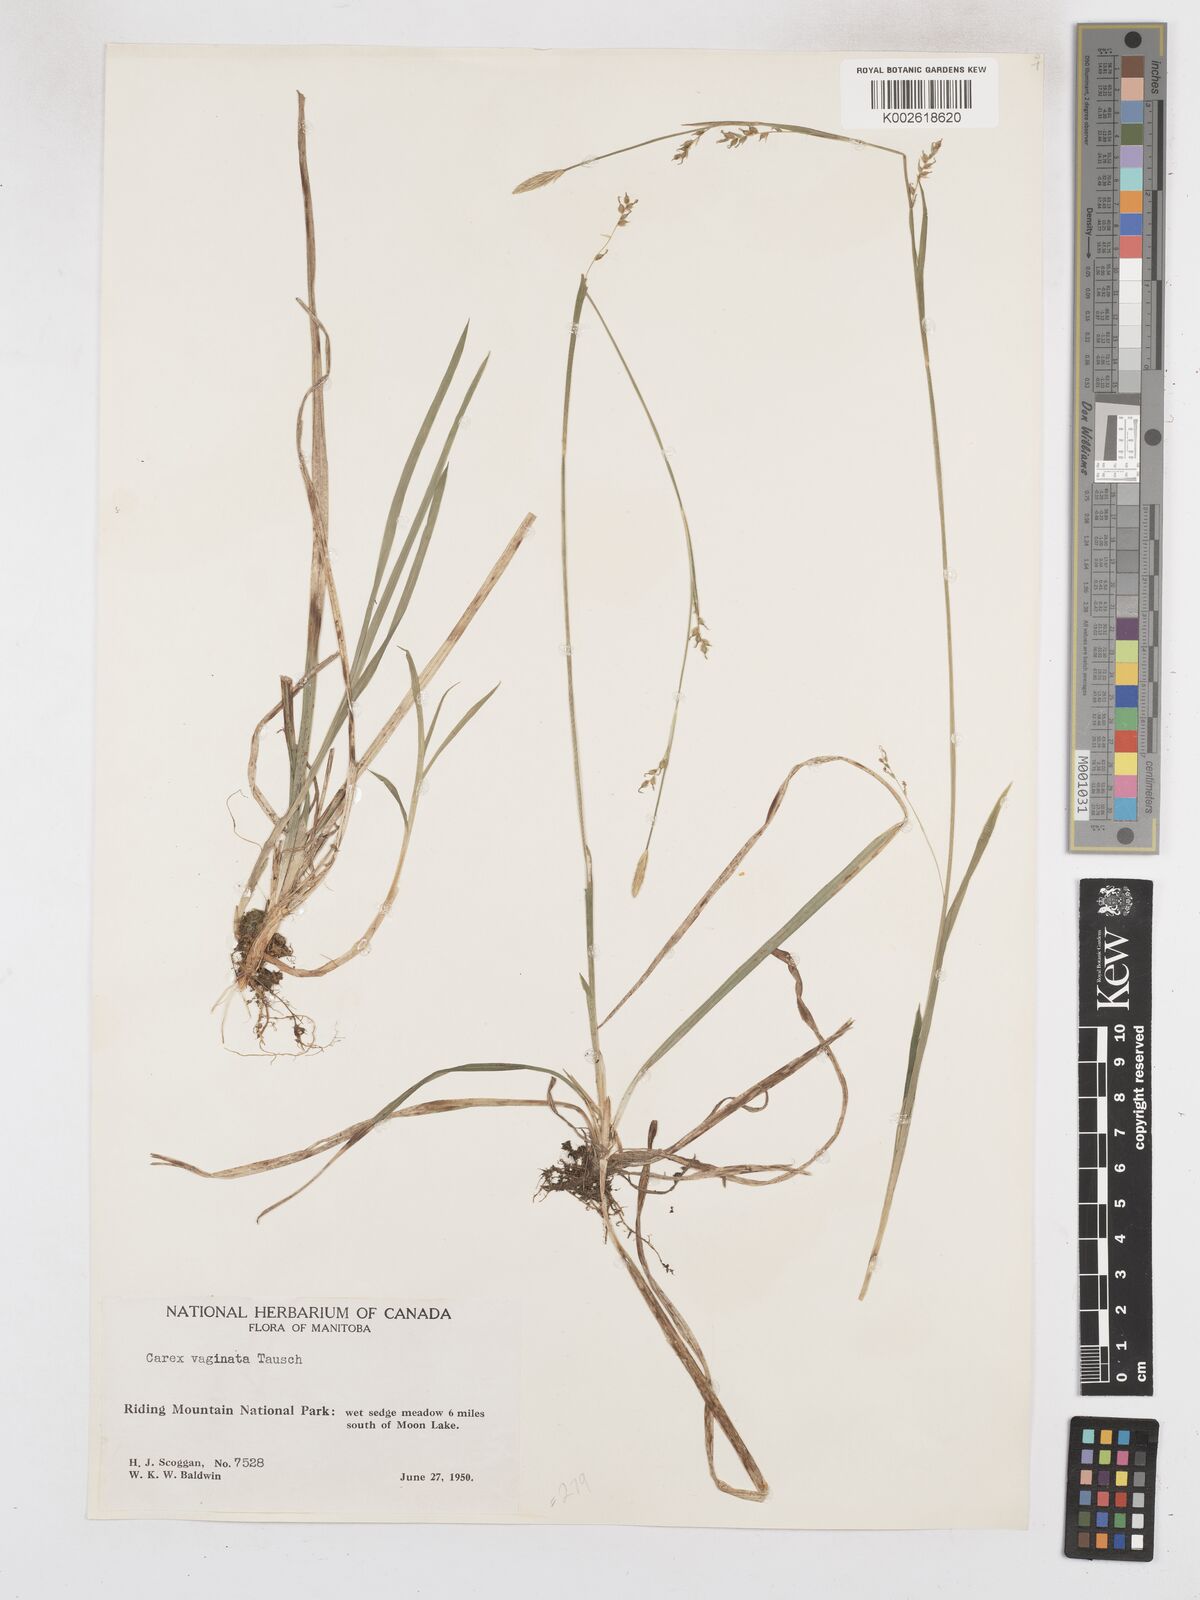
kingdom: Plantae
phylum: Tracheophyta
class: Liliopsida
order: Poales
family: Cyperaceae
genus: Carex
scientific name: Carex vaginata
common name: Sheathed sedge
